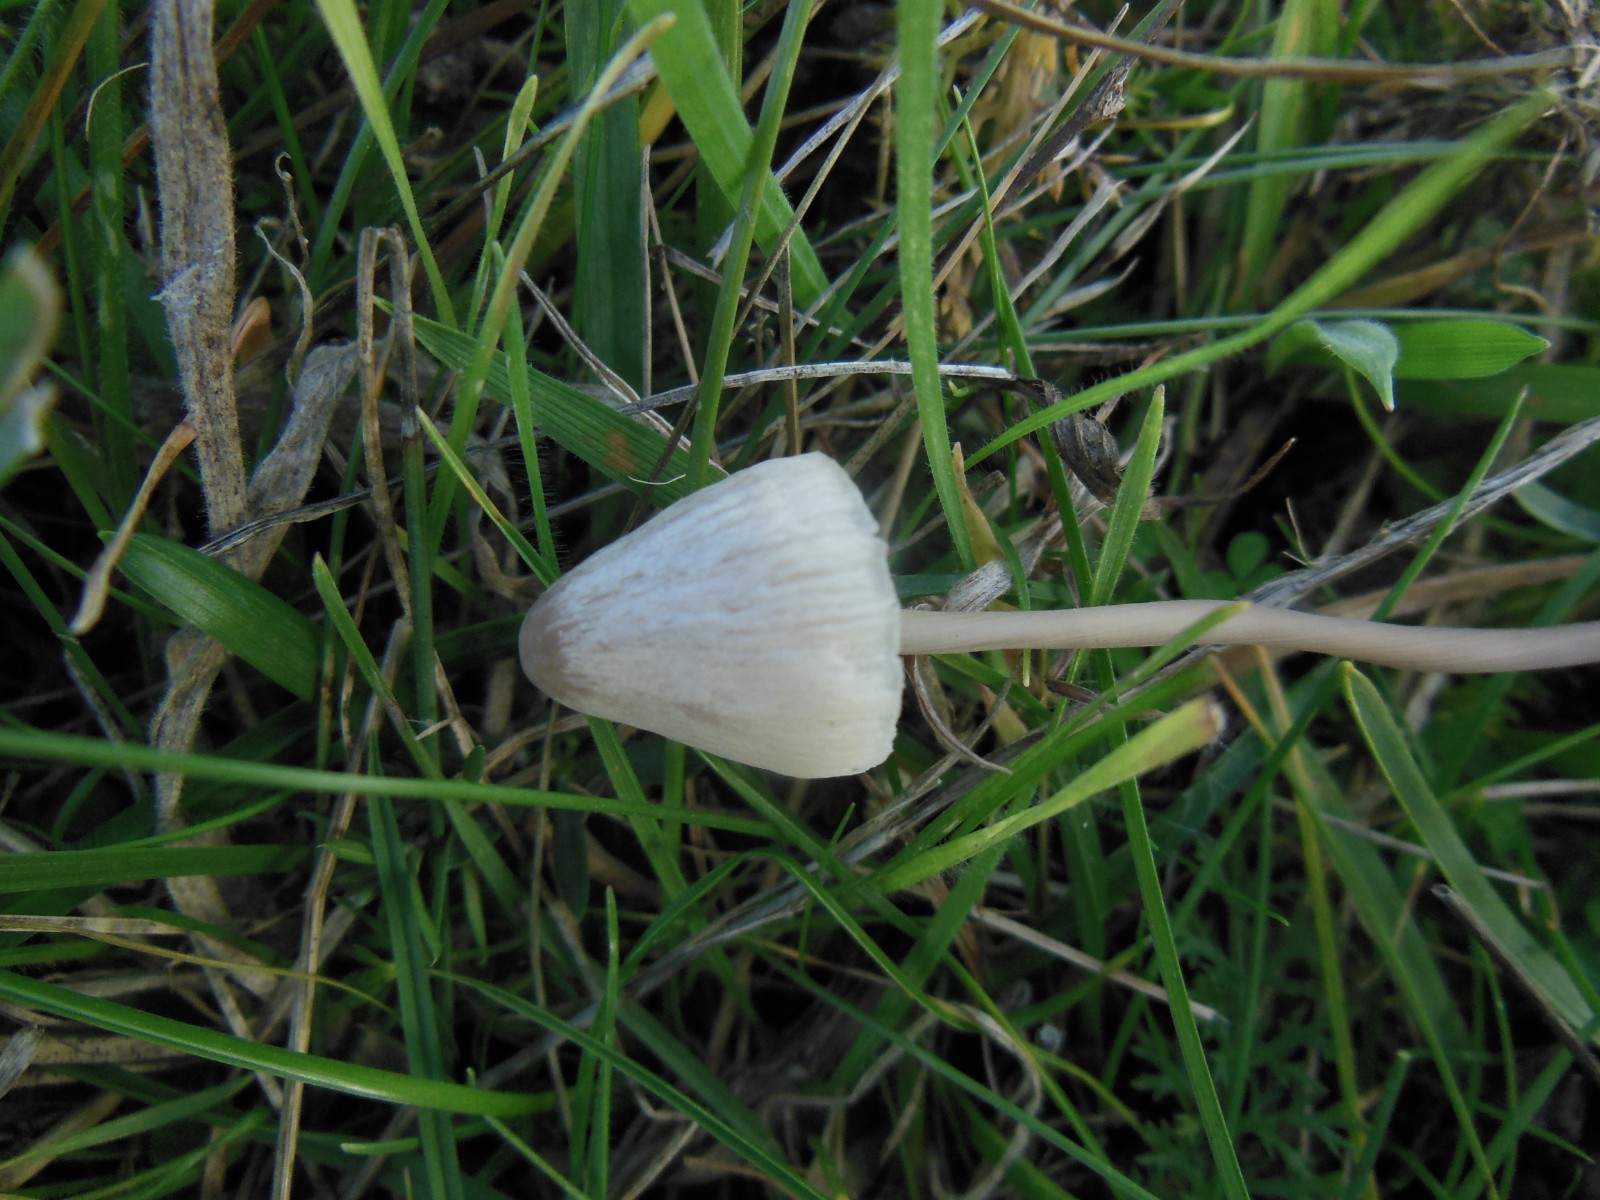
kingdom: Fungi
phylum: Basidiomycota
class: Agaricomycetes
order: Agaricales
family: Mycenaceae
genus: Mycena
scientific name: Mycena filopes
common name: jod-huesvamp
